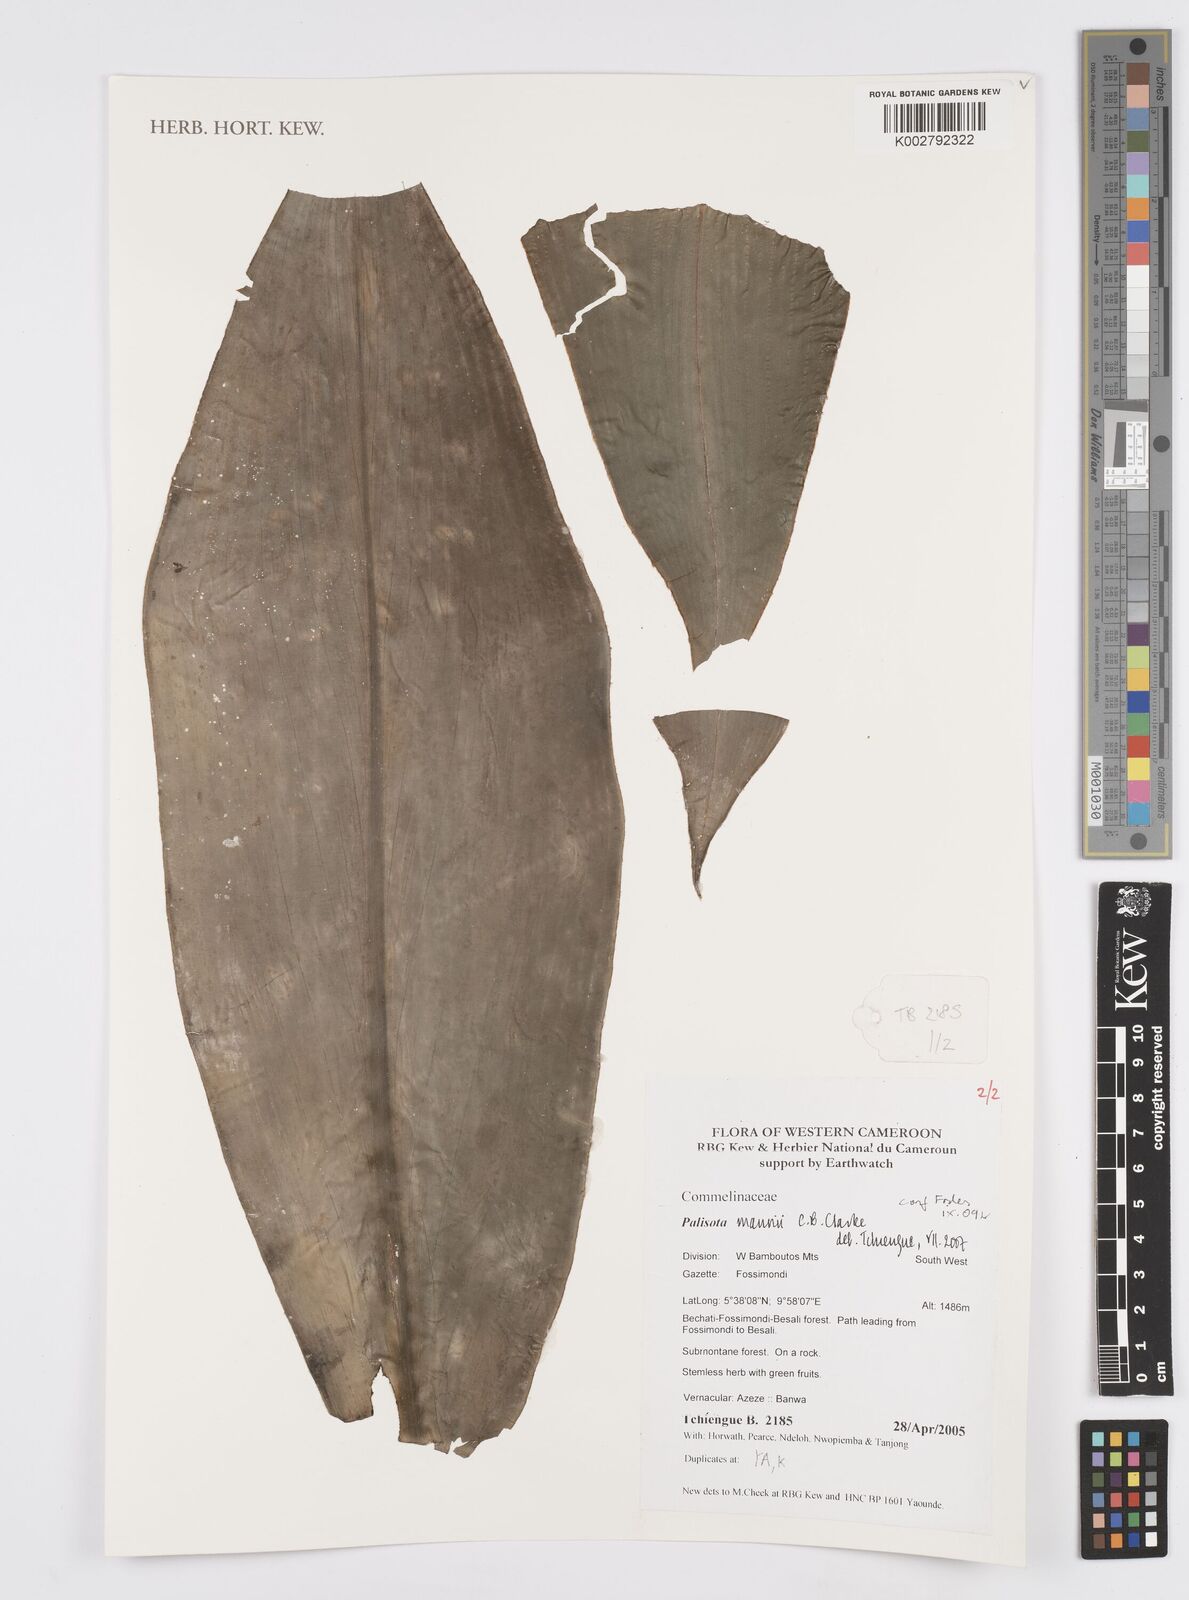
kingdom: Plantae
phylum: Tracheophyta
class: Liliopsida
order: Commelinales
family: Commelinaceae
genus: Palisota
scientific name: Palisota mannii
